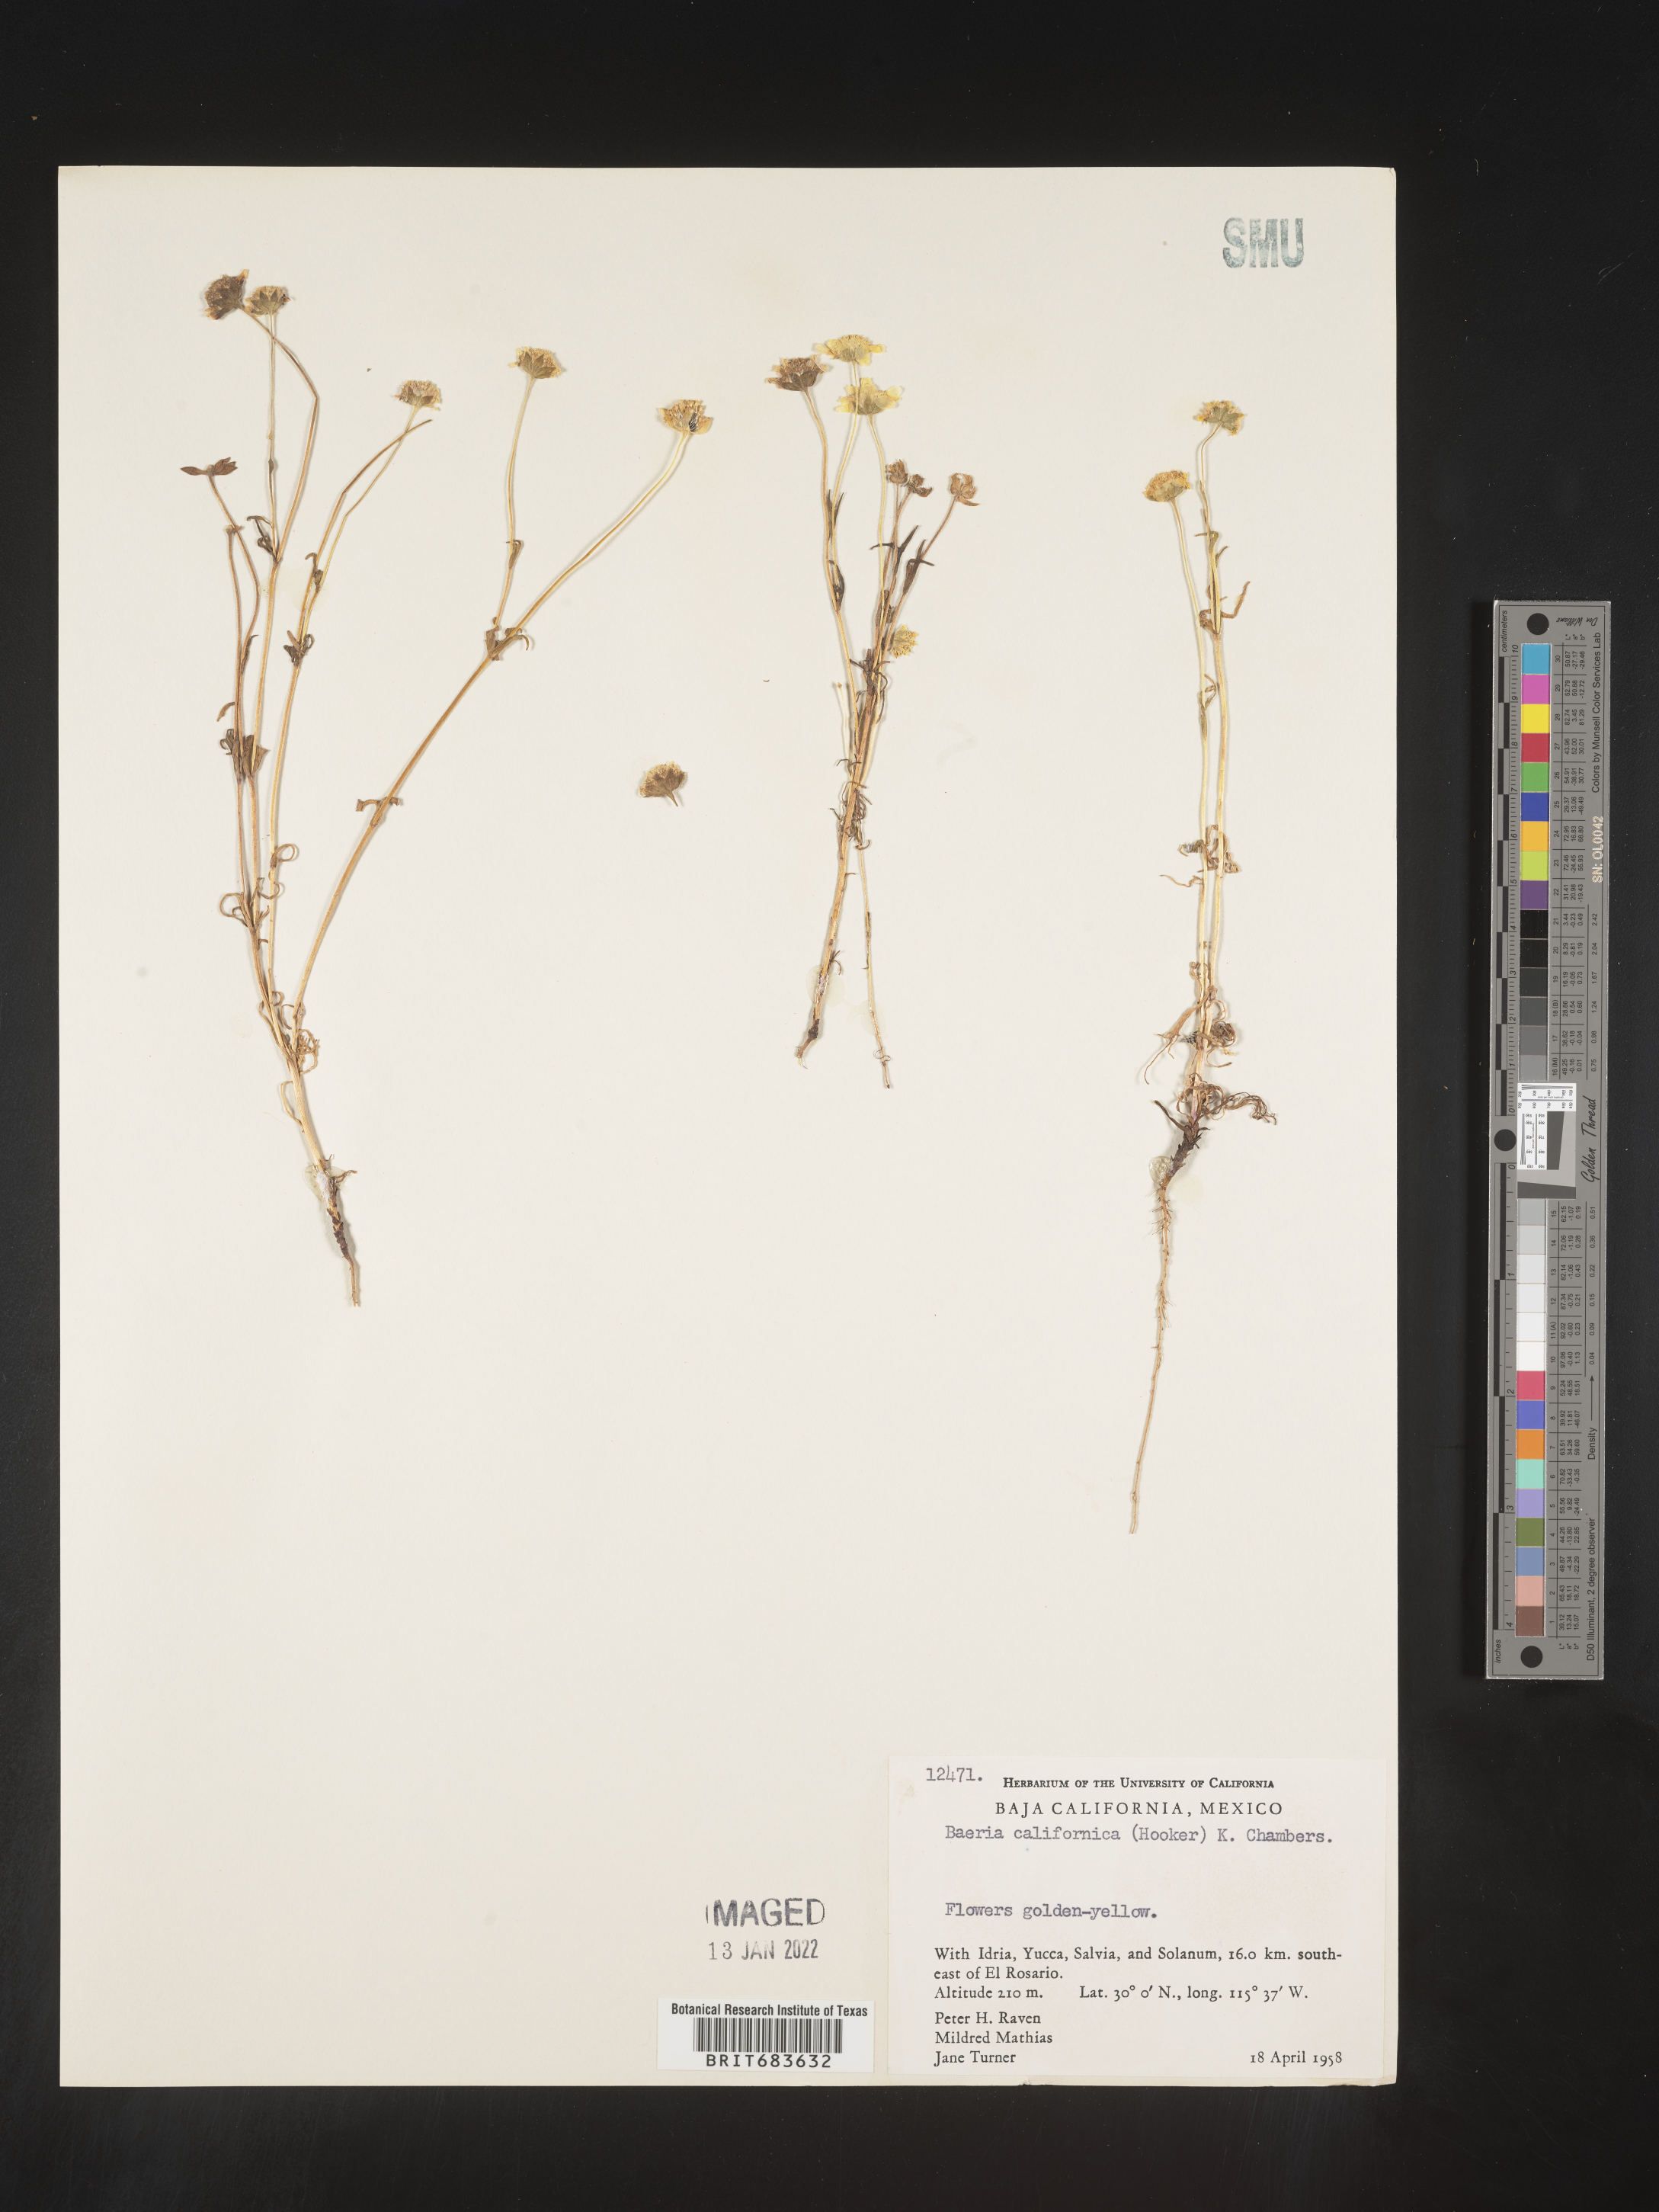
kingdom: Plantae
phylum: Tracheophyta
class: Magnoliopsida
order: Asterales
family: Asteraceae
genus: Lasthenia
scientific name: Lasthenia
